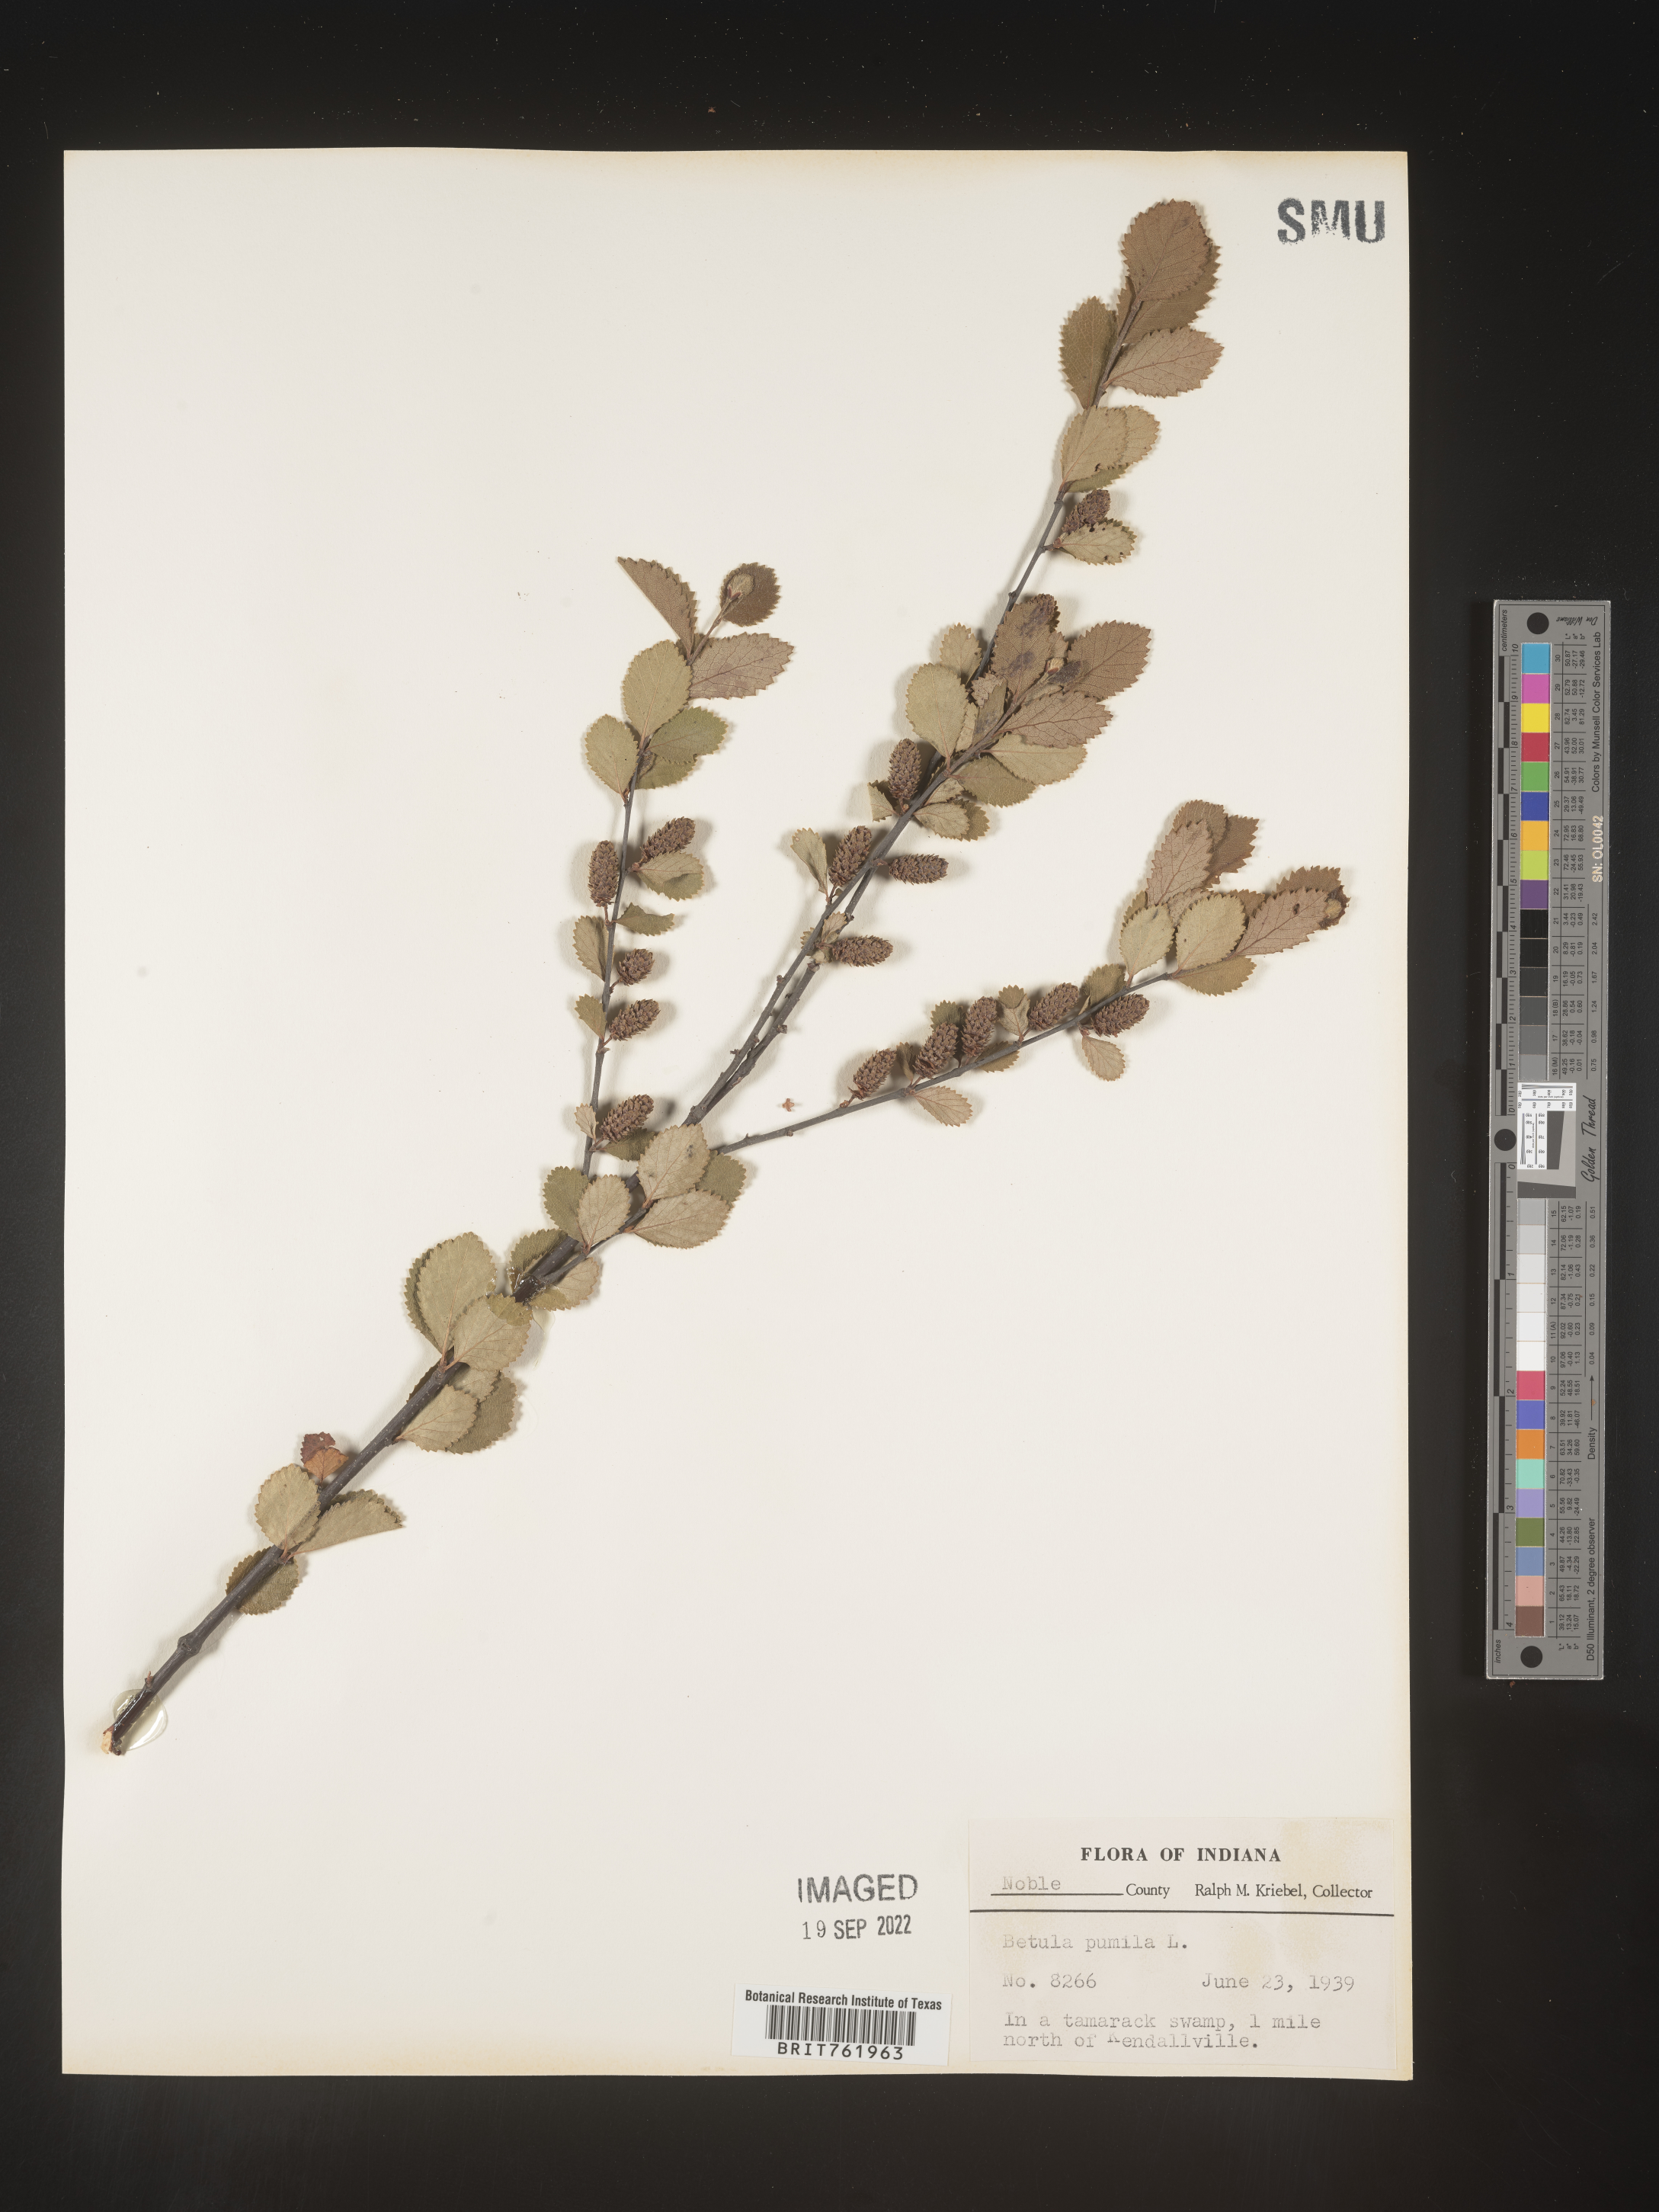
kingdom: Plantae
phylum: Tracheophyta
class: Magnoliopsida
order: Fagales
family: Betulaceae
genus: Betula
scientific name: Betula pumila
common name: Bog birch
